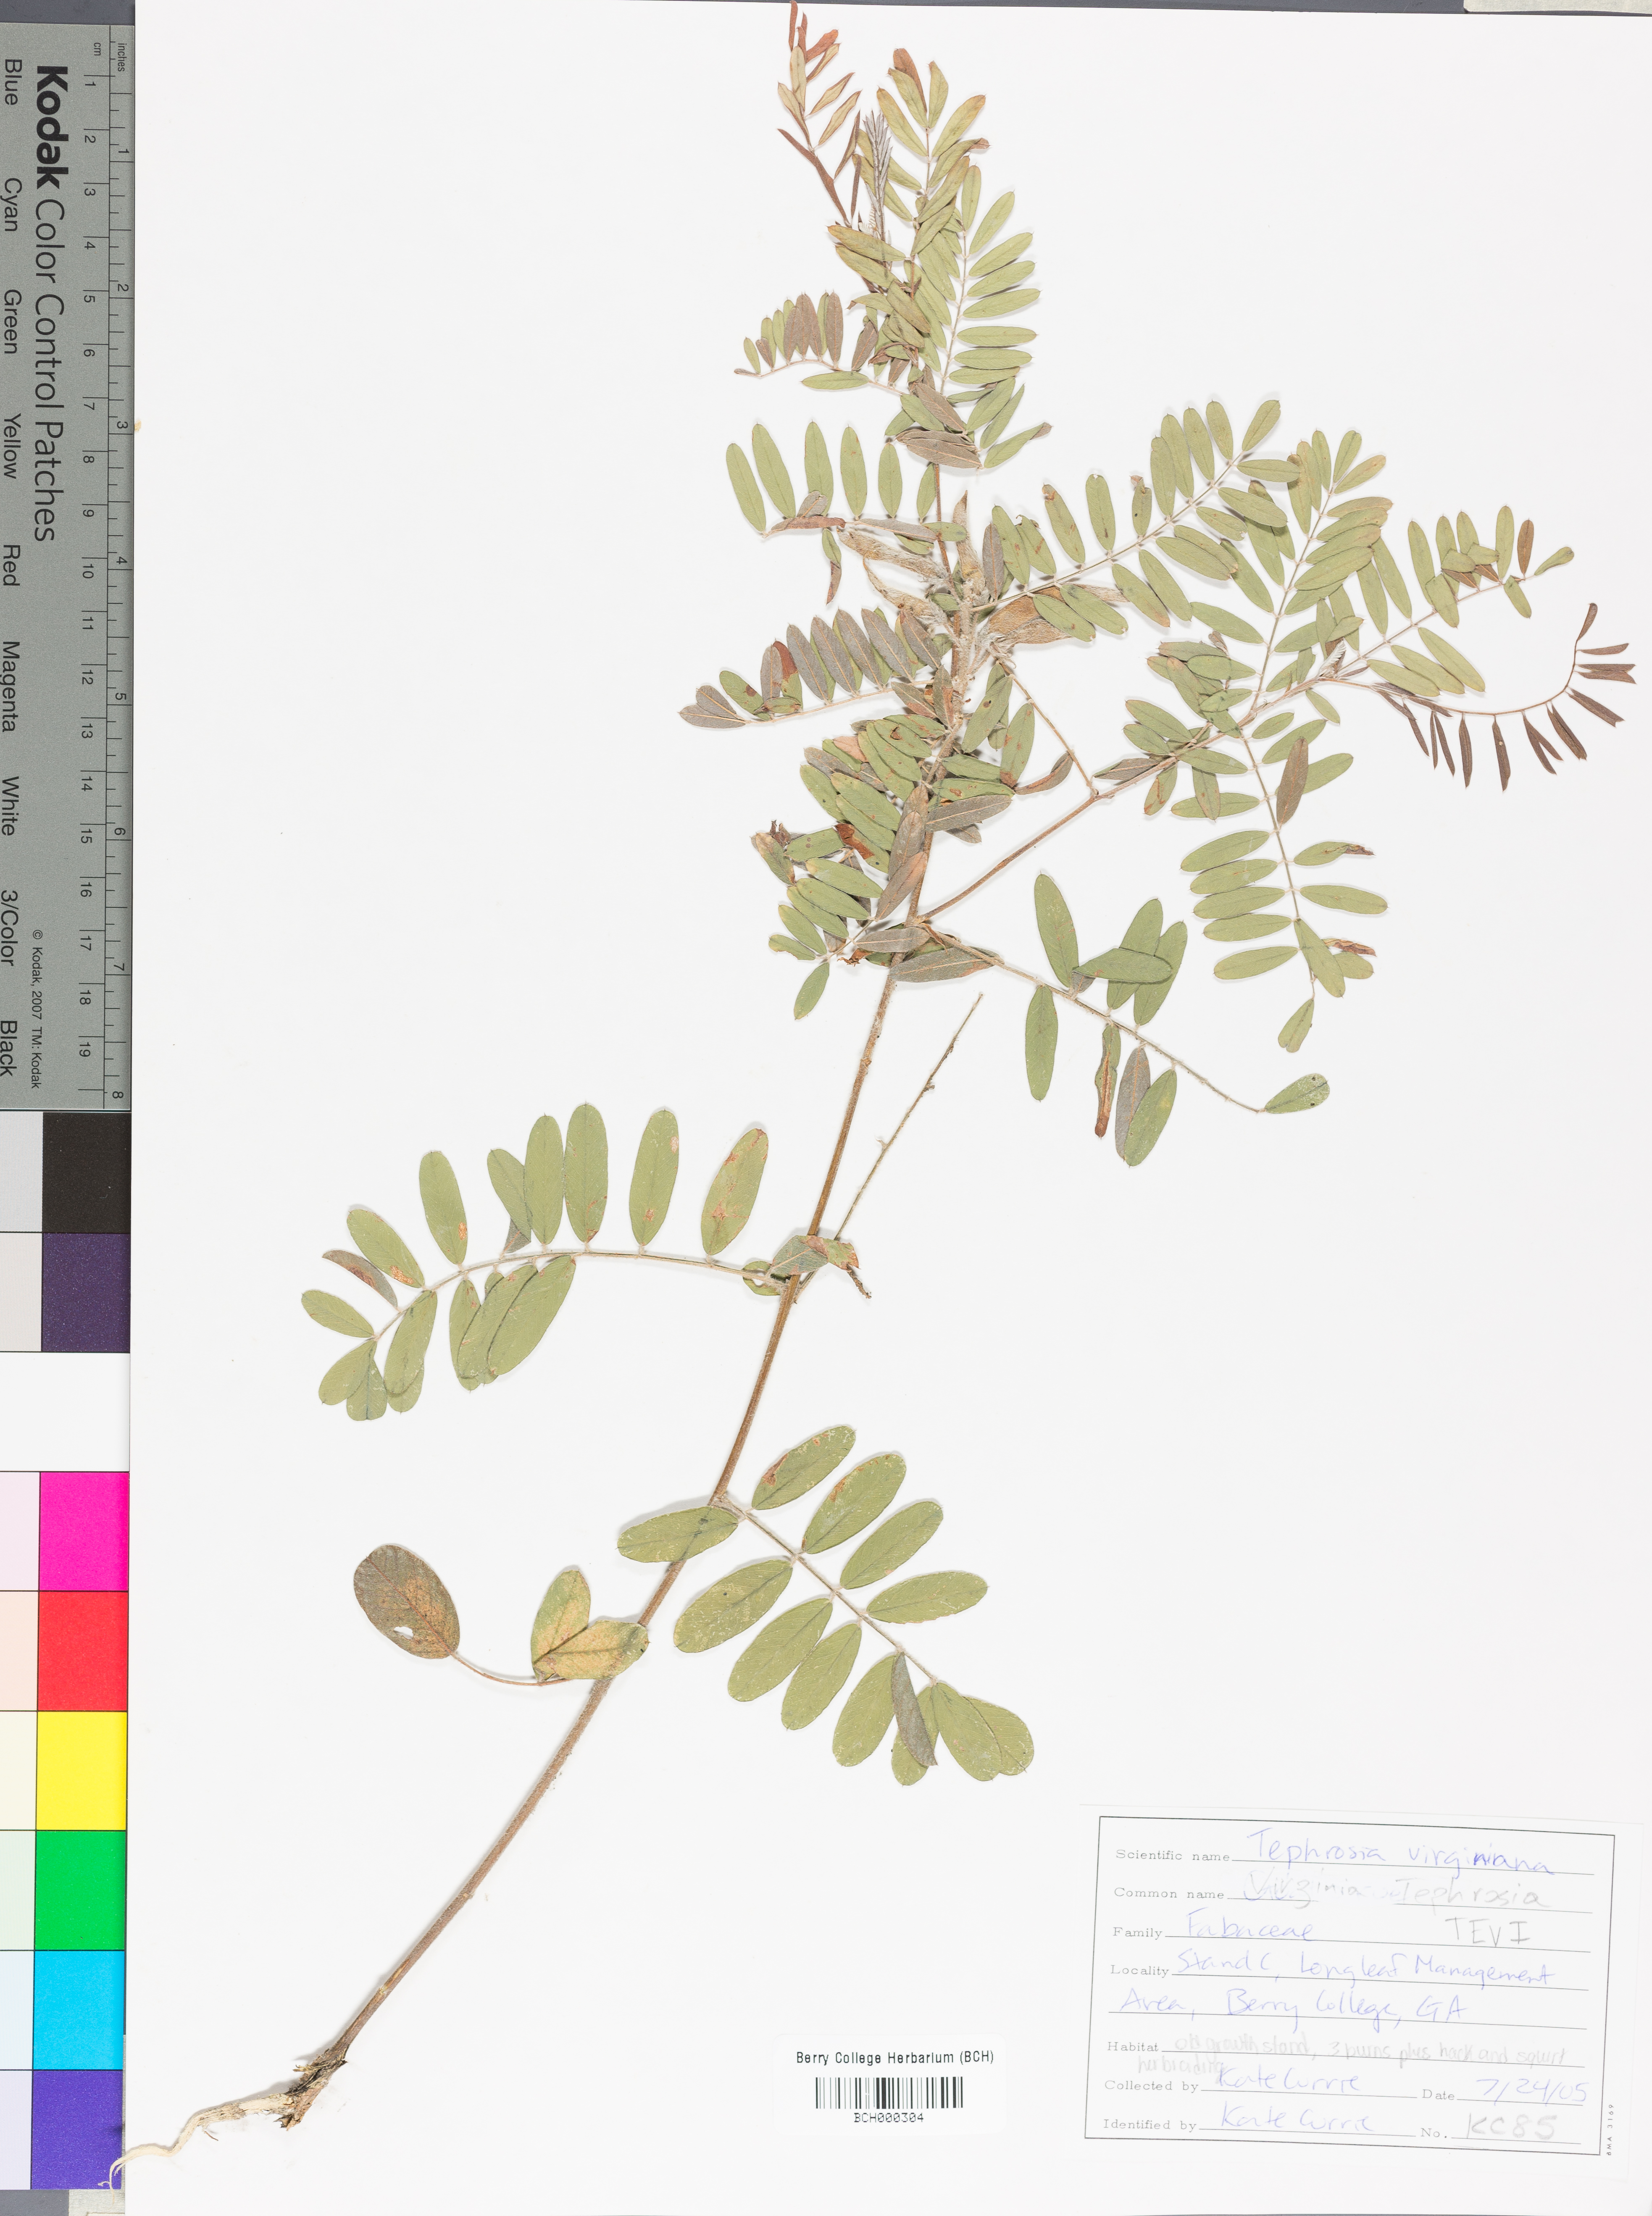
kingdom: Plantae
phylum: Tracheophyta
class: Magnoliopsida
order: Fabales
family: Fabaceae
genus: Tephrosia
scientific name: Tephrosia virginiana
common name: Rabbit-pea
